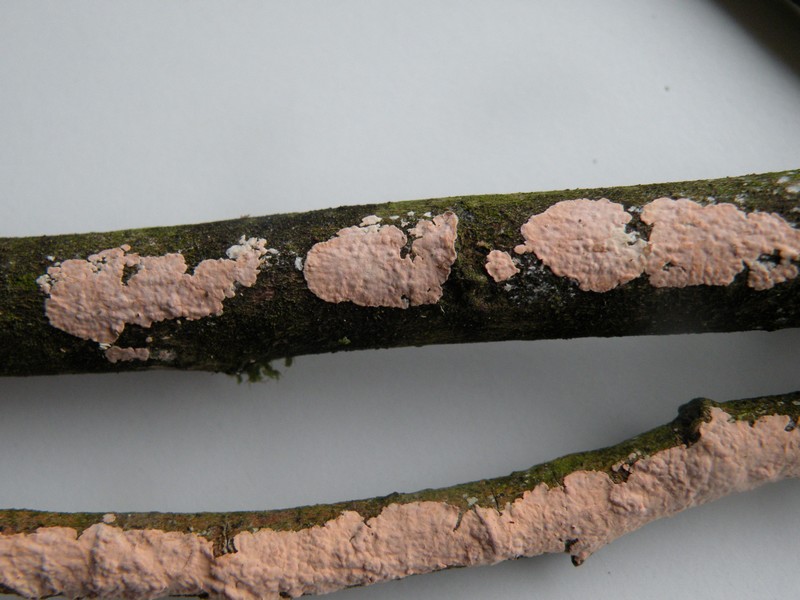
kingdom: Fungi
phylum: Basidiomycota
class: Agaricomycetes
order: Corticiales
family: Corticiaceae
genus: Corticium
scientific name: Corticium roseum
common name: rosa barkskind
